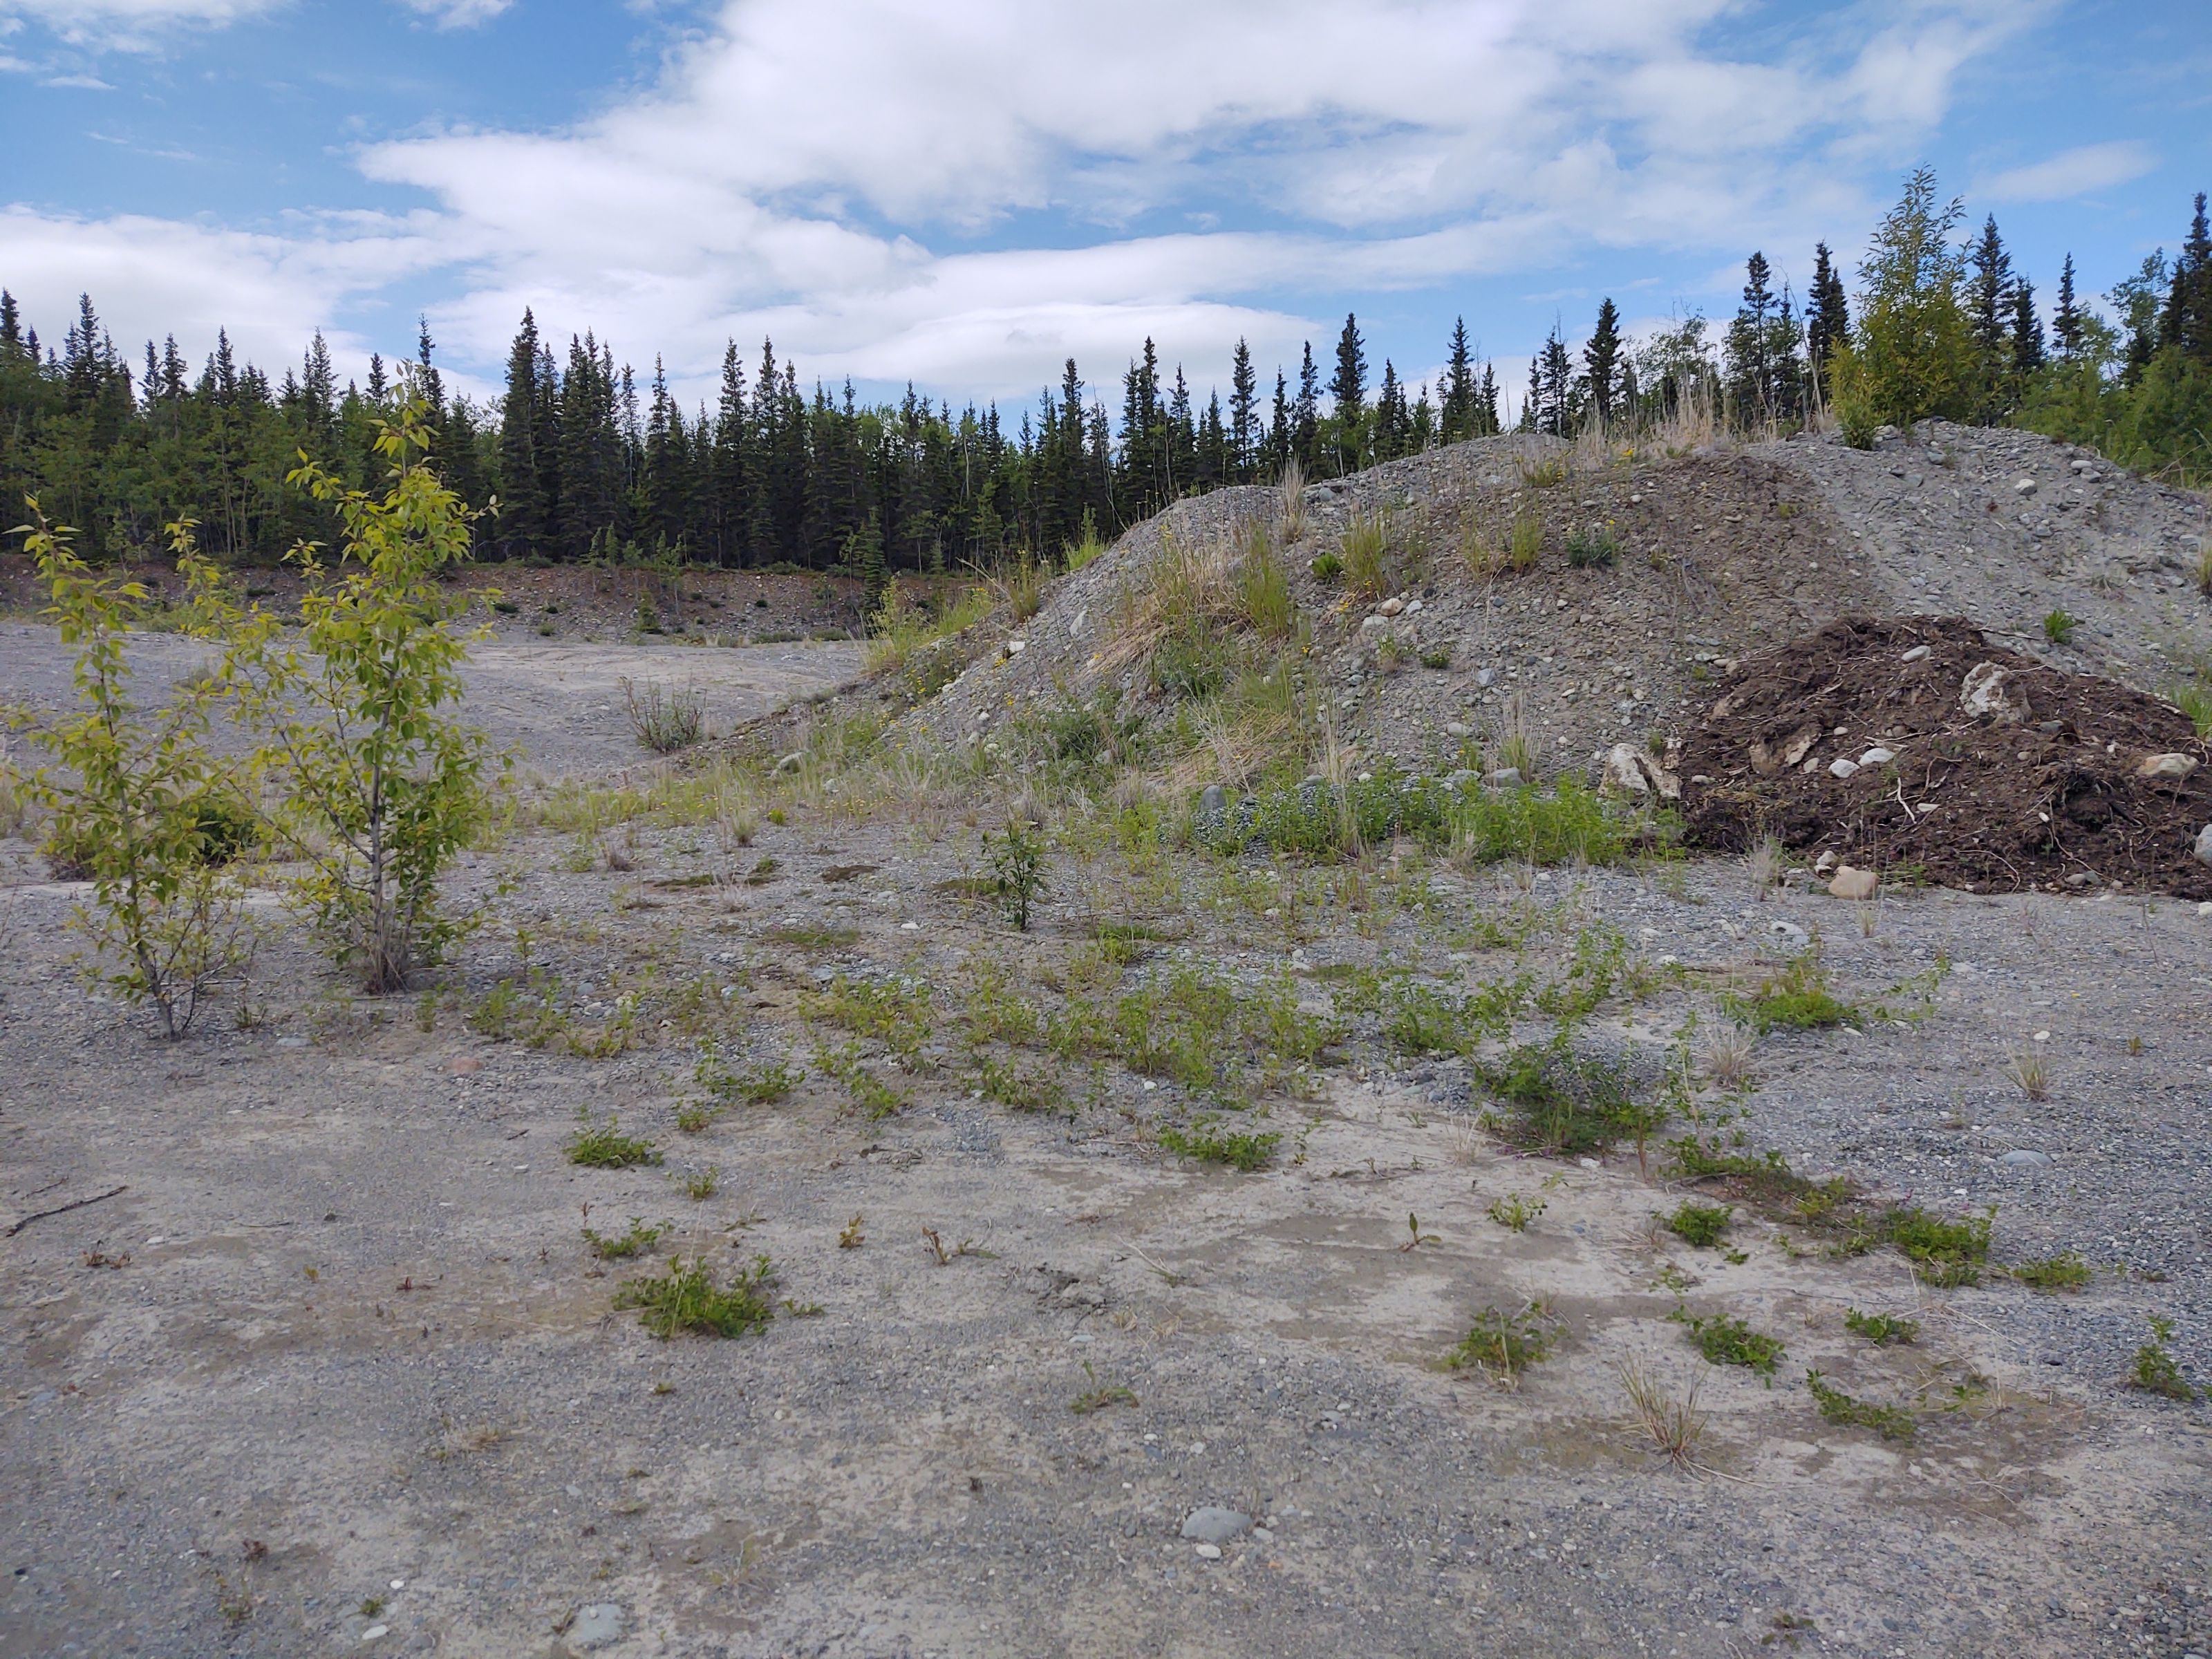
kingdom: Plantae
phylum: Tracheophyta
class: Magnoliopsida
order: Fabales
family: Fabaceae
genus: Melilotus
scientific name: Melilotus albus
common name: White sweetclover
